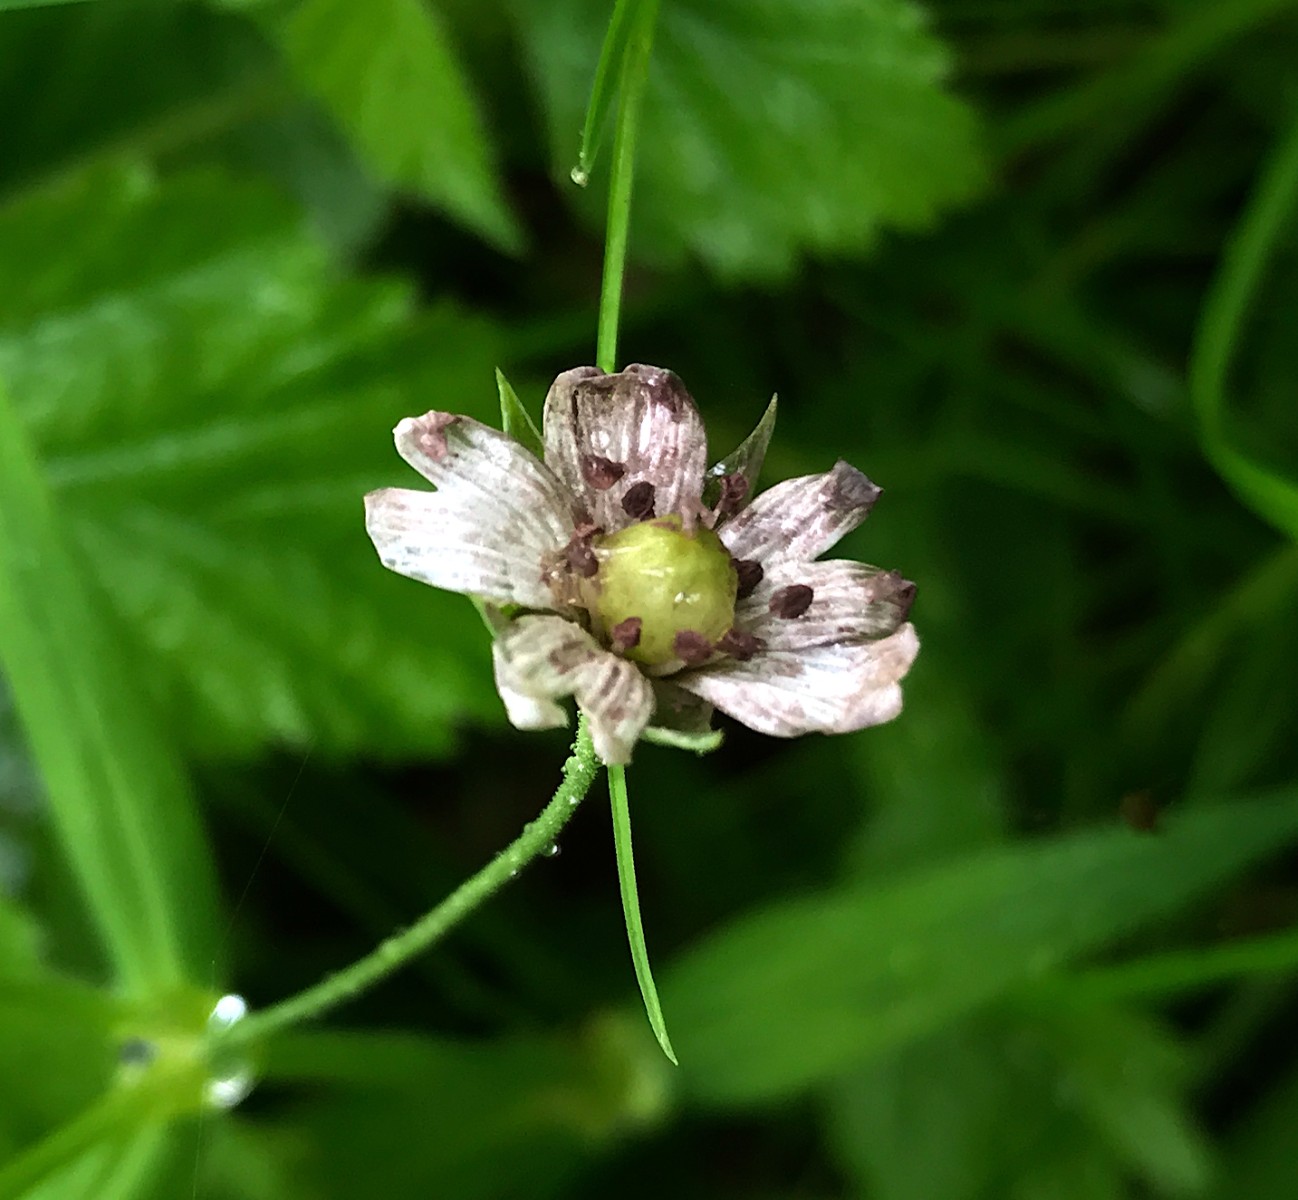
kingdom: Fungi
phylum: Basidiomycota
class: Microbotryomycetes
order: Microbotryales
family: Microbotryaceae
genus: Microbotryum
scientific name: Microbotryum stellariae
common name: fladstjerne-støvbladrust
